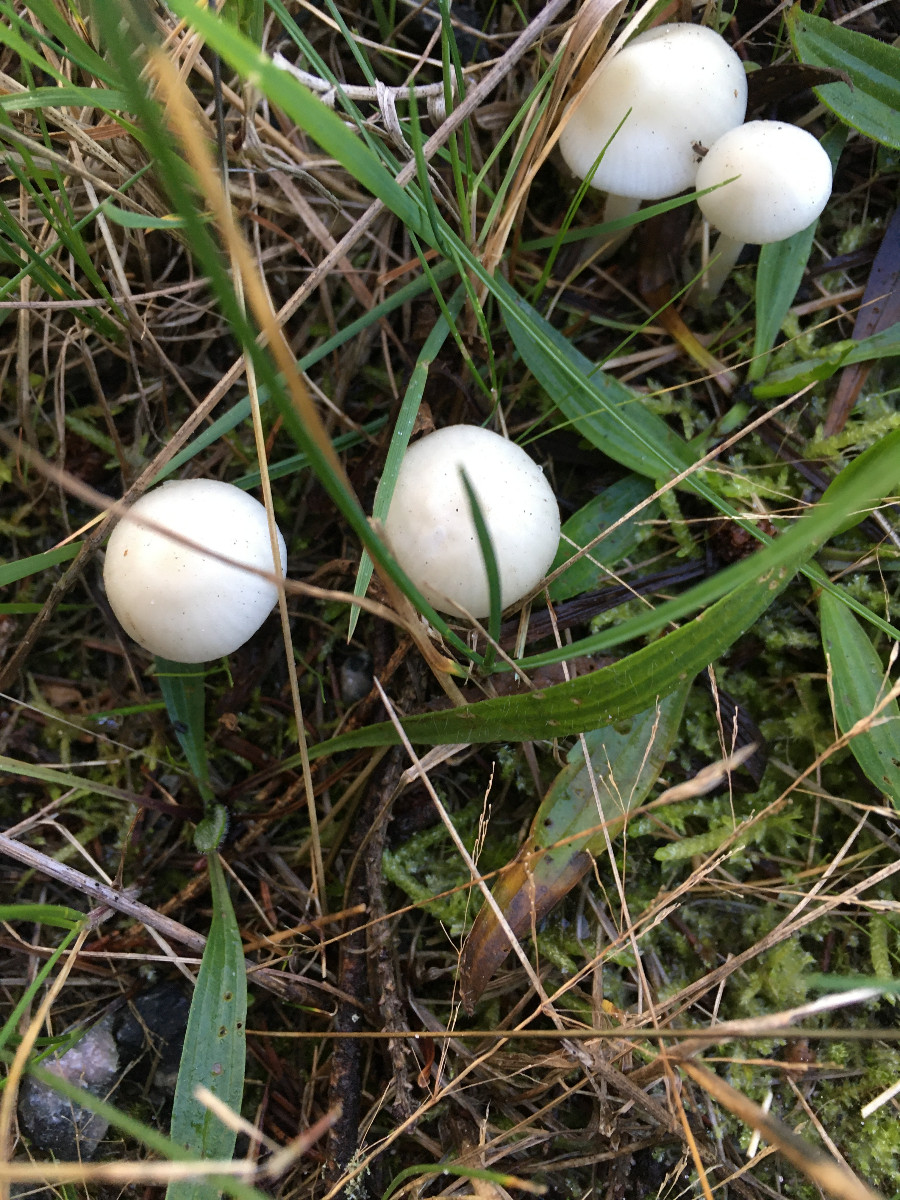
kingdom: Fungi
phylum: Basidiomycota
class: Agaricomycetes
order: Agaricales
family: Hygrophoraceae
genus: Cuphophyllus
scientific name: Cuphophyllus virgineus
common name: snehvid vokshat
